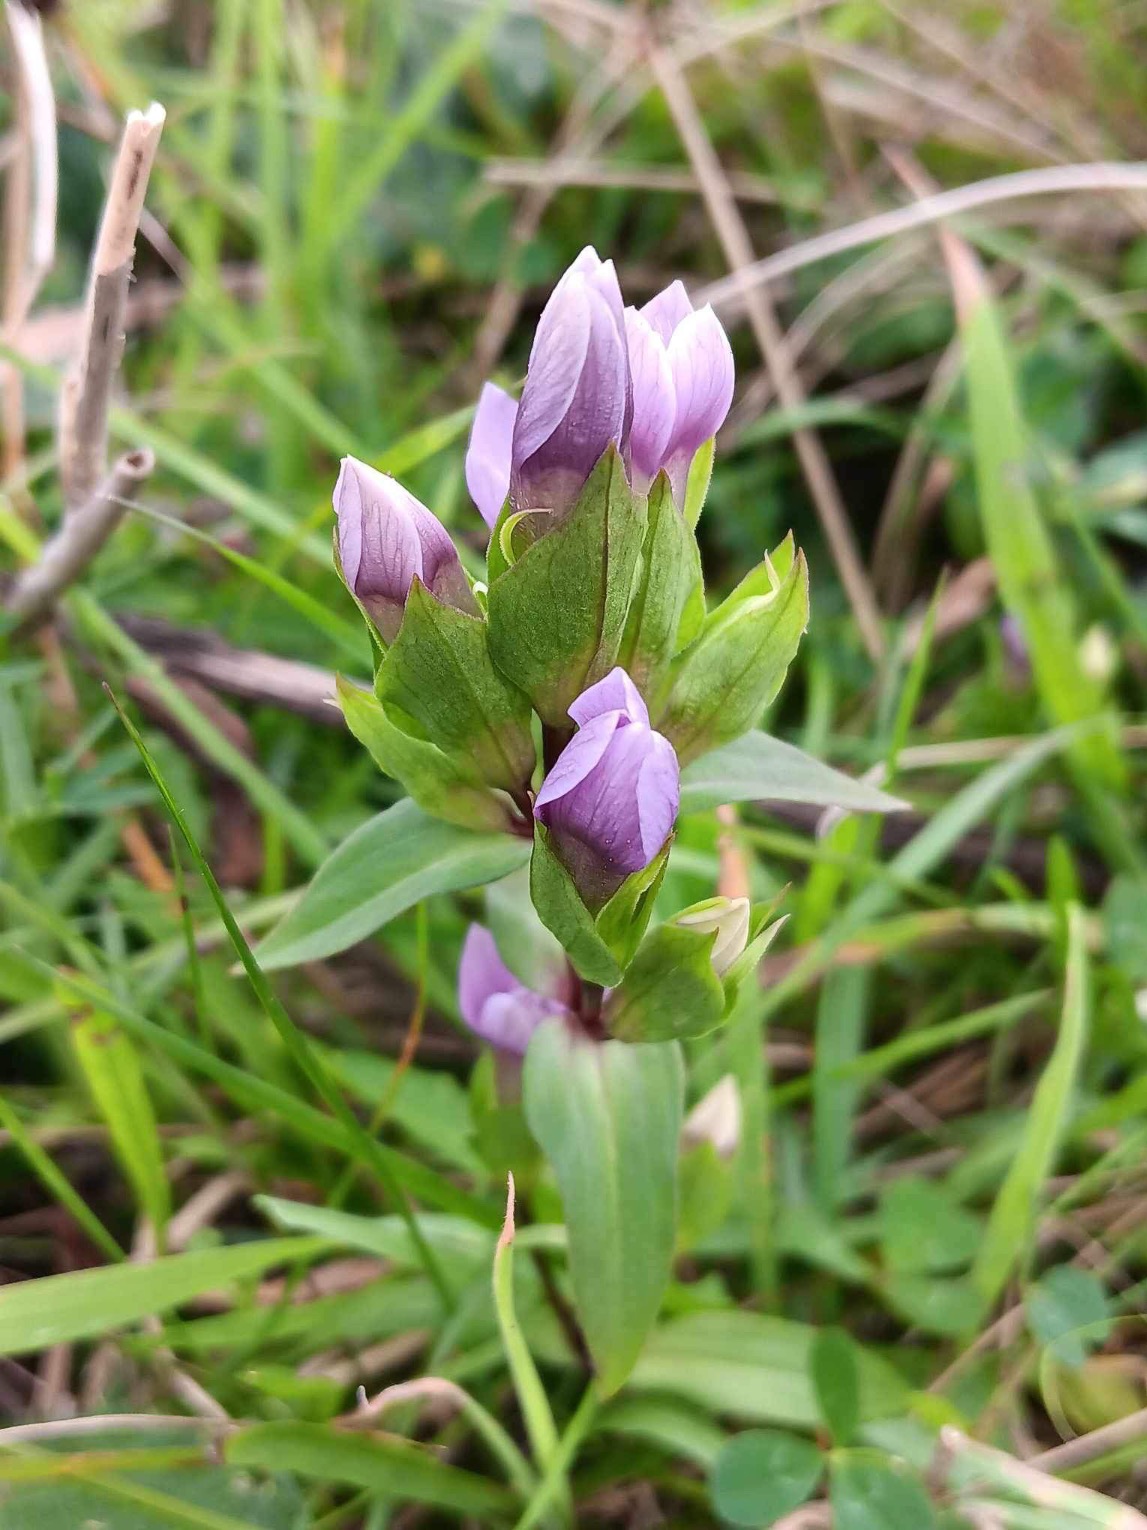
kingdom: Plantae
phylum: Tracheophyta
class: Magnoliopsida
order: Gentianales
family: Gentianaceae
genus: Gentianella
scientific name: Gentianella campestris
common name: Baltisk ensian
